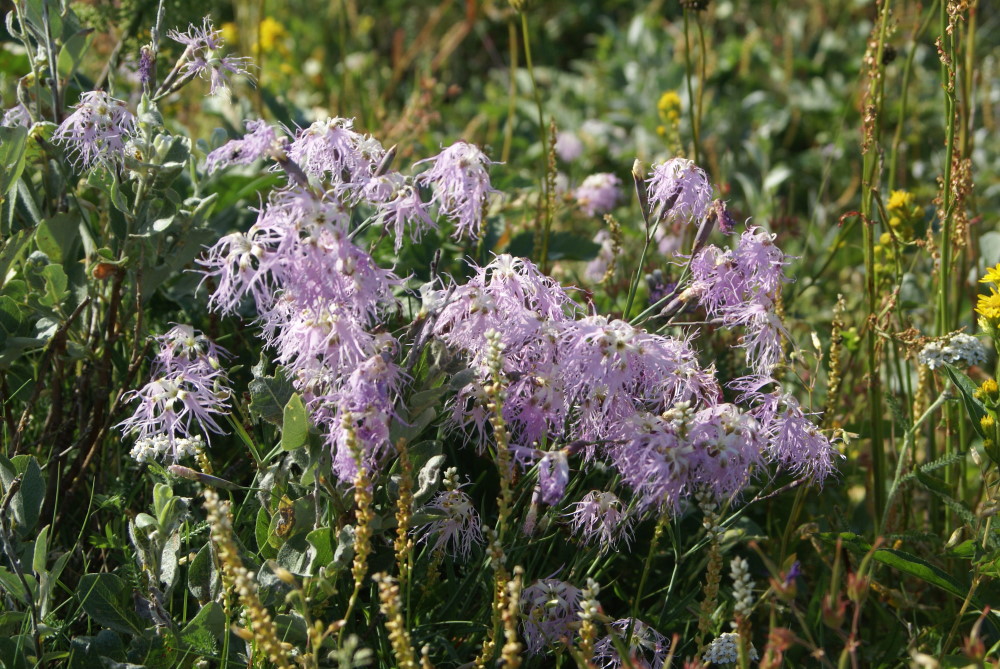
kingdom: Plantae
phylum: Tracheophyta
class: Magnoliopsida
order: Caryophyllales
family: Caryophyllaceae
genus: Dianthus
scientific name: Dianthus superbus
